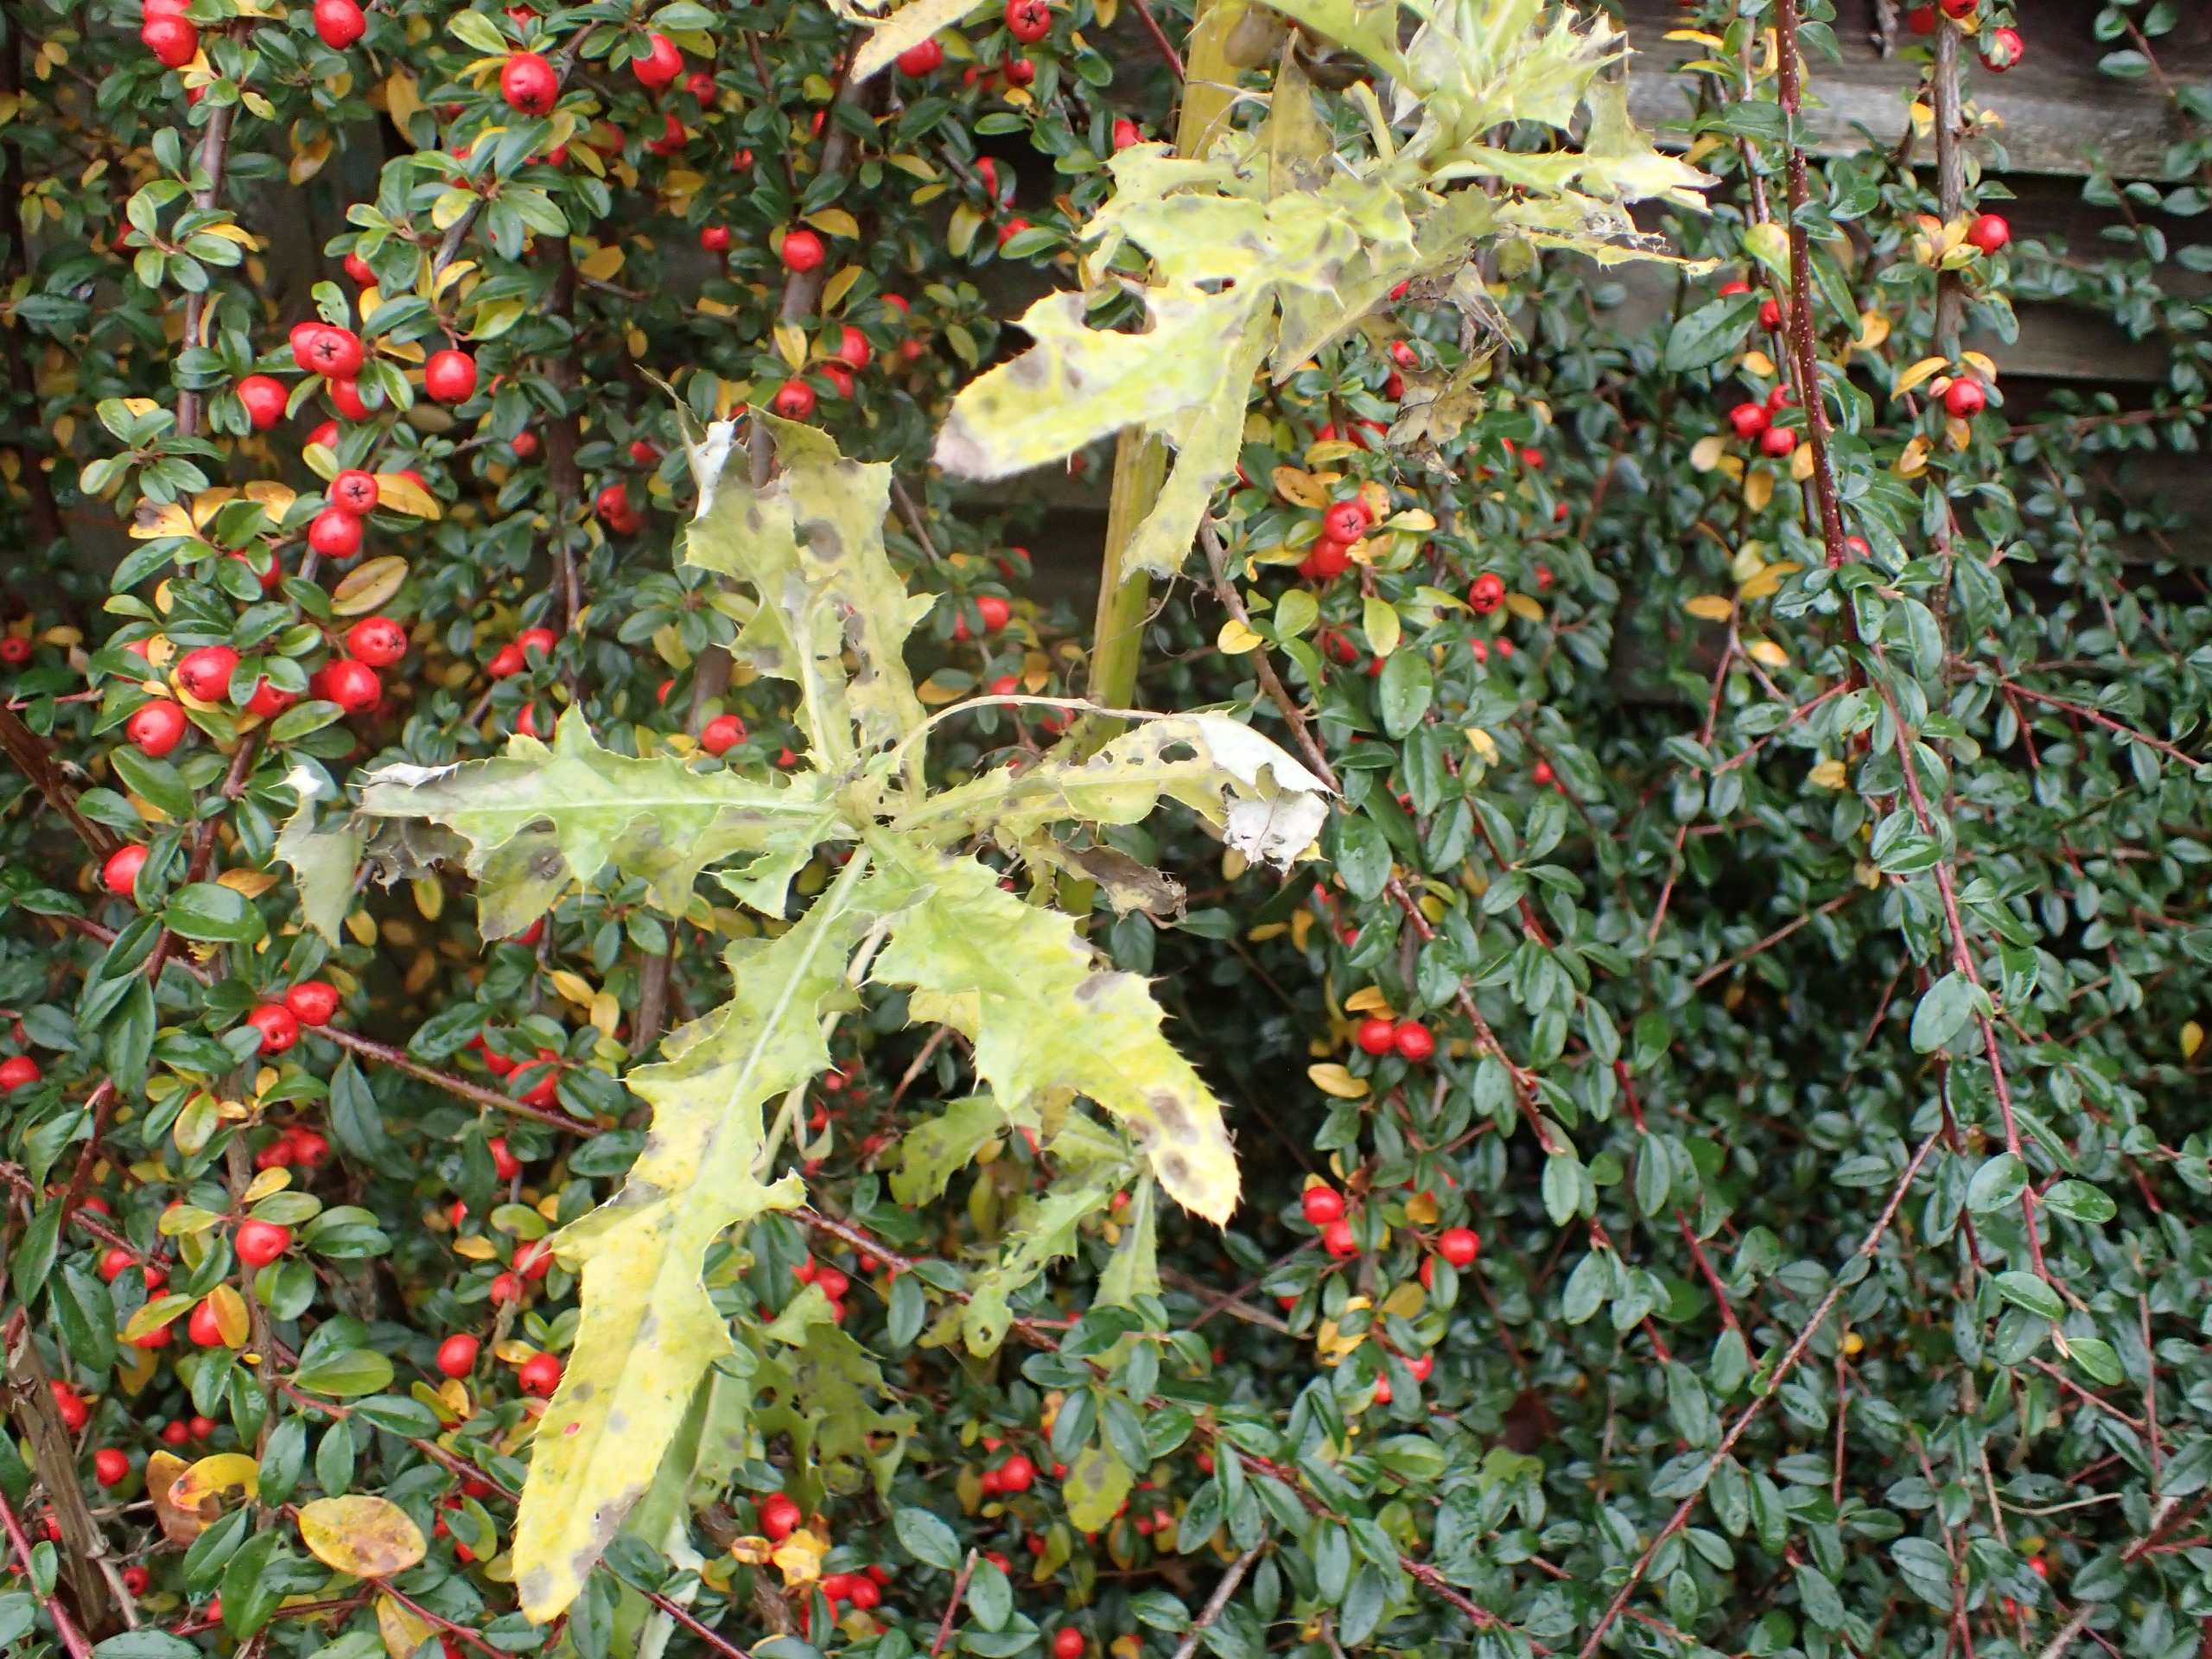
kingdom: Plantae
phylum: Tracheophyta
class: Magnoliopsida
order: Asterales
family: Asteraceae
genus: Cirsium
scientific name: Cirsium arvense
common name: Ager-tidsel
